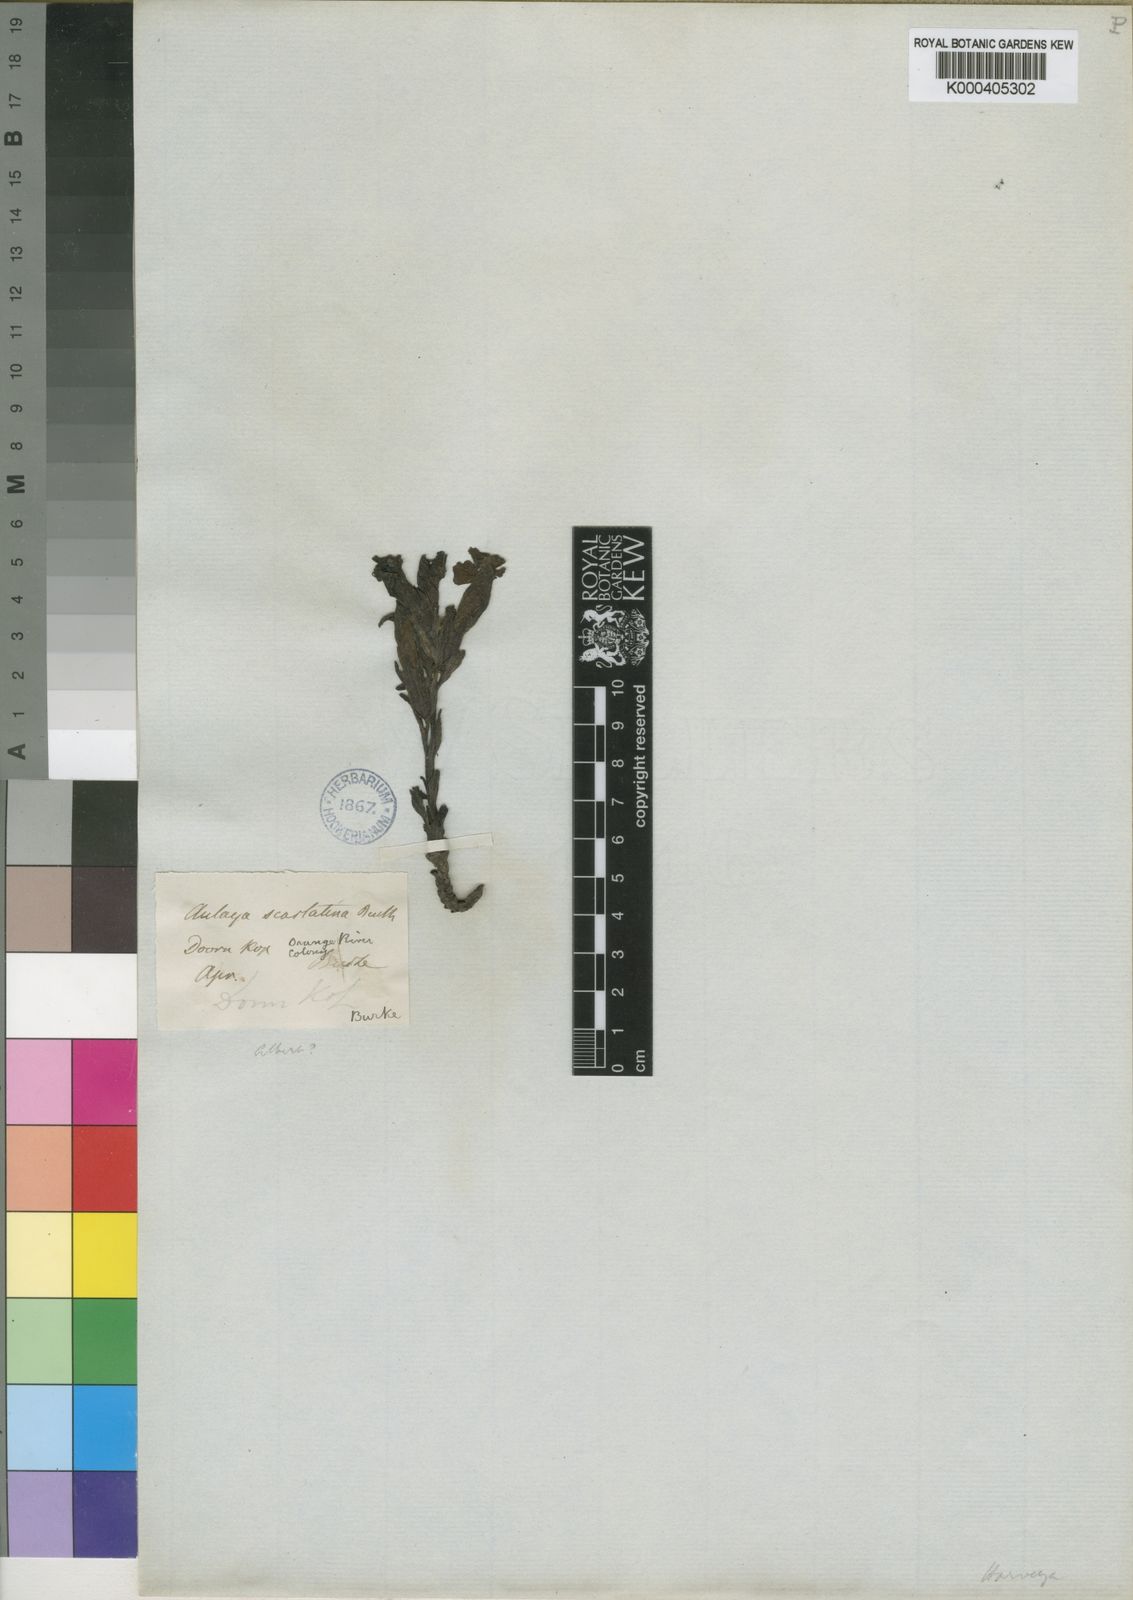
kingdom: Plantae
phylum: Tracheophyta
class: Magnoliopsida
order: Lamiales
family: Orobanchaceae
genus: Harveya
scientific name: Harveya
